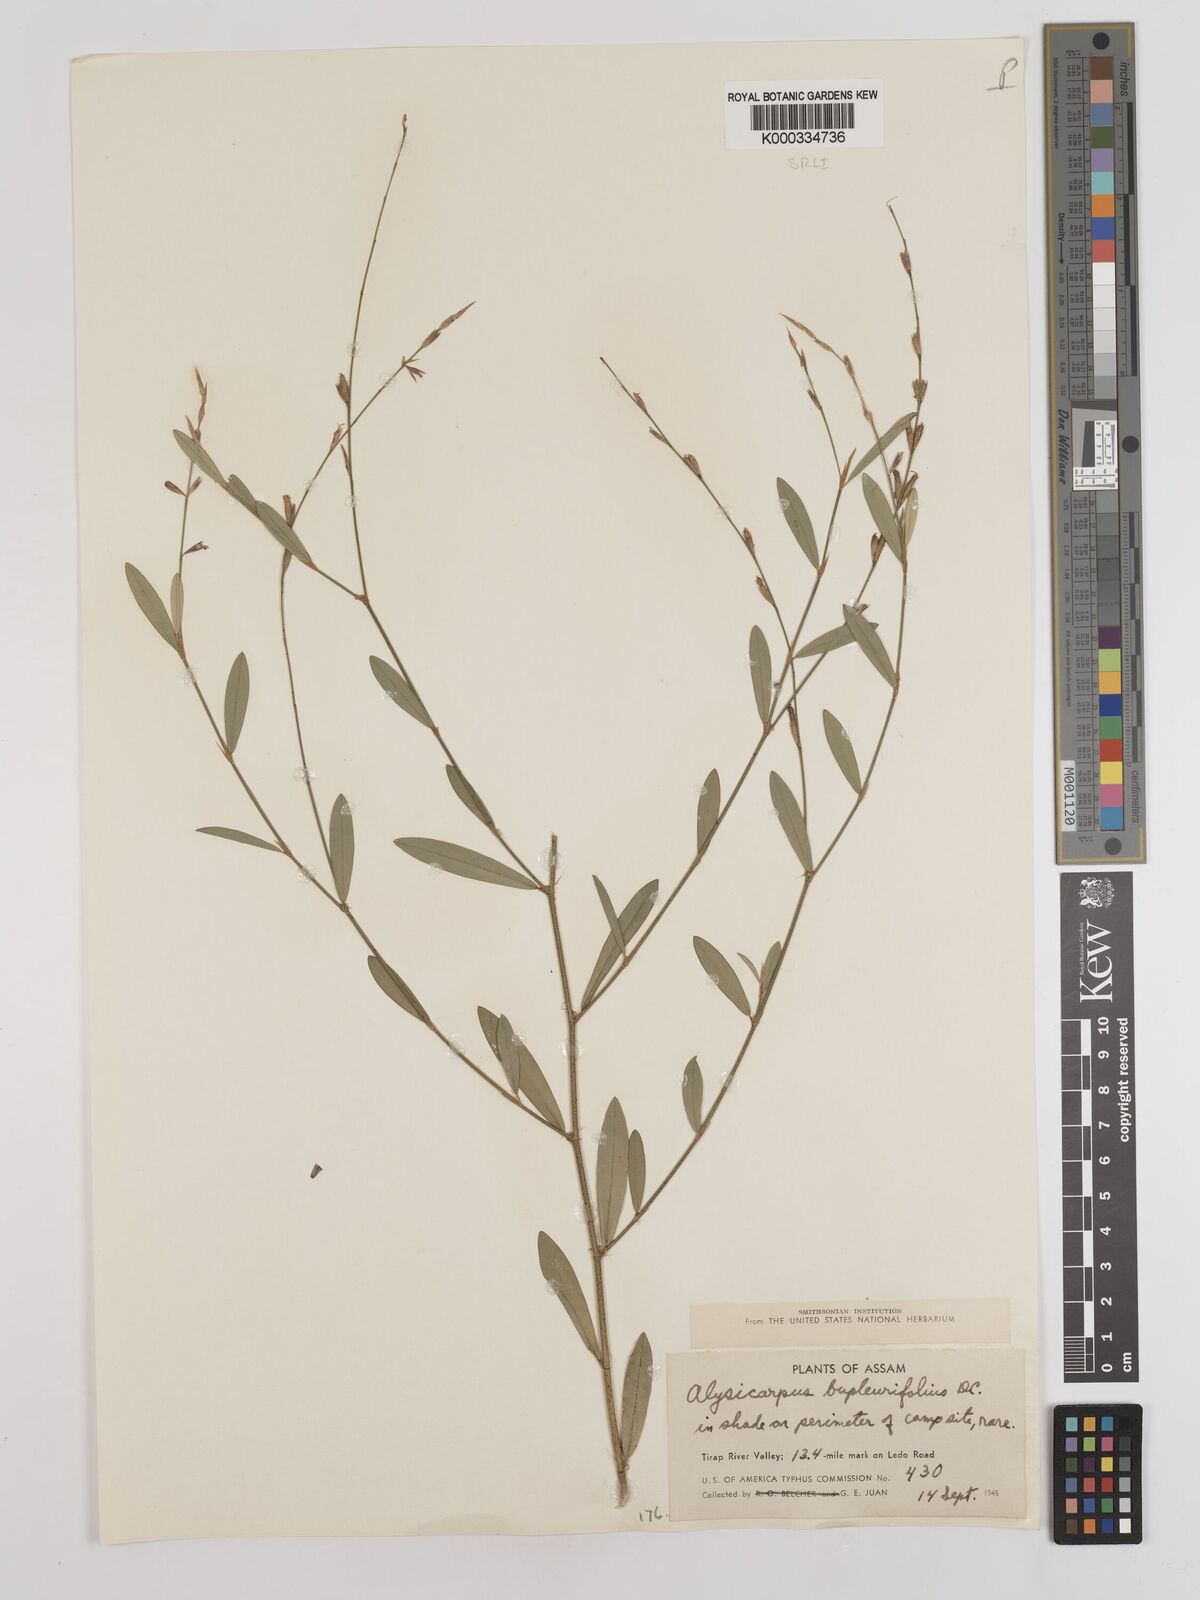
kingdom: Plantae
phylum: Tracheophyta
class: Magnoliopsida
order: Fabales
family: Fabaceae
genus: Alysicarpus
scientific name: Alysicarpus bupleurifolius
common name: Sweet alys
